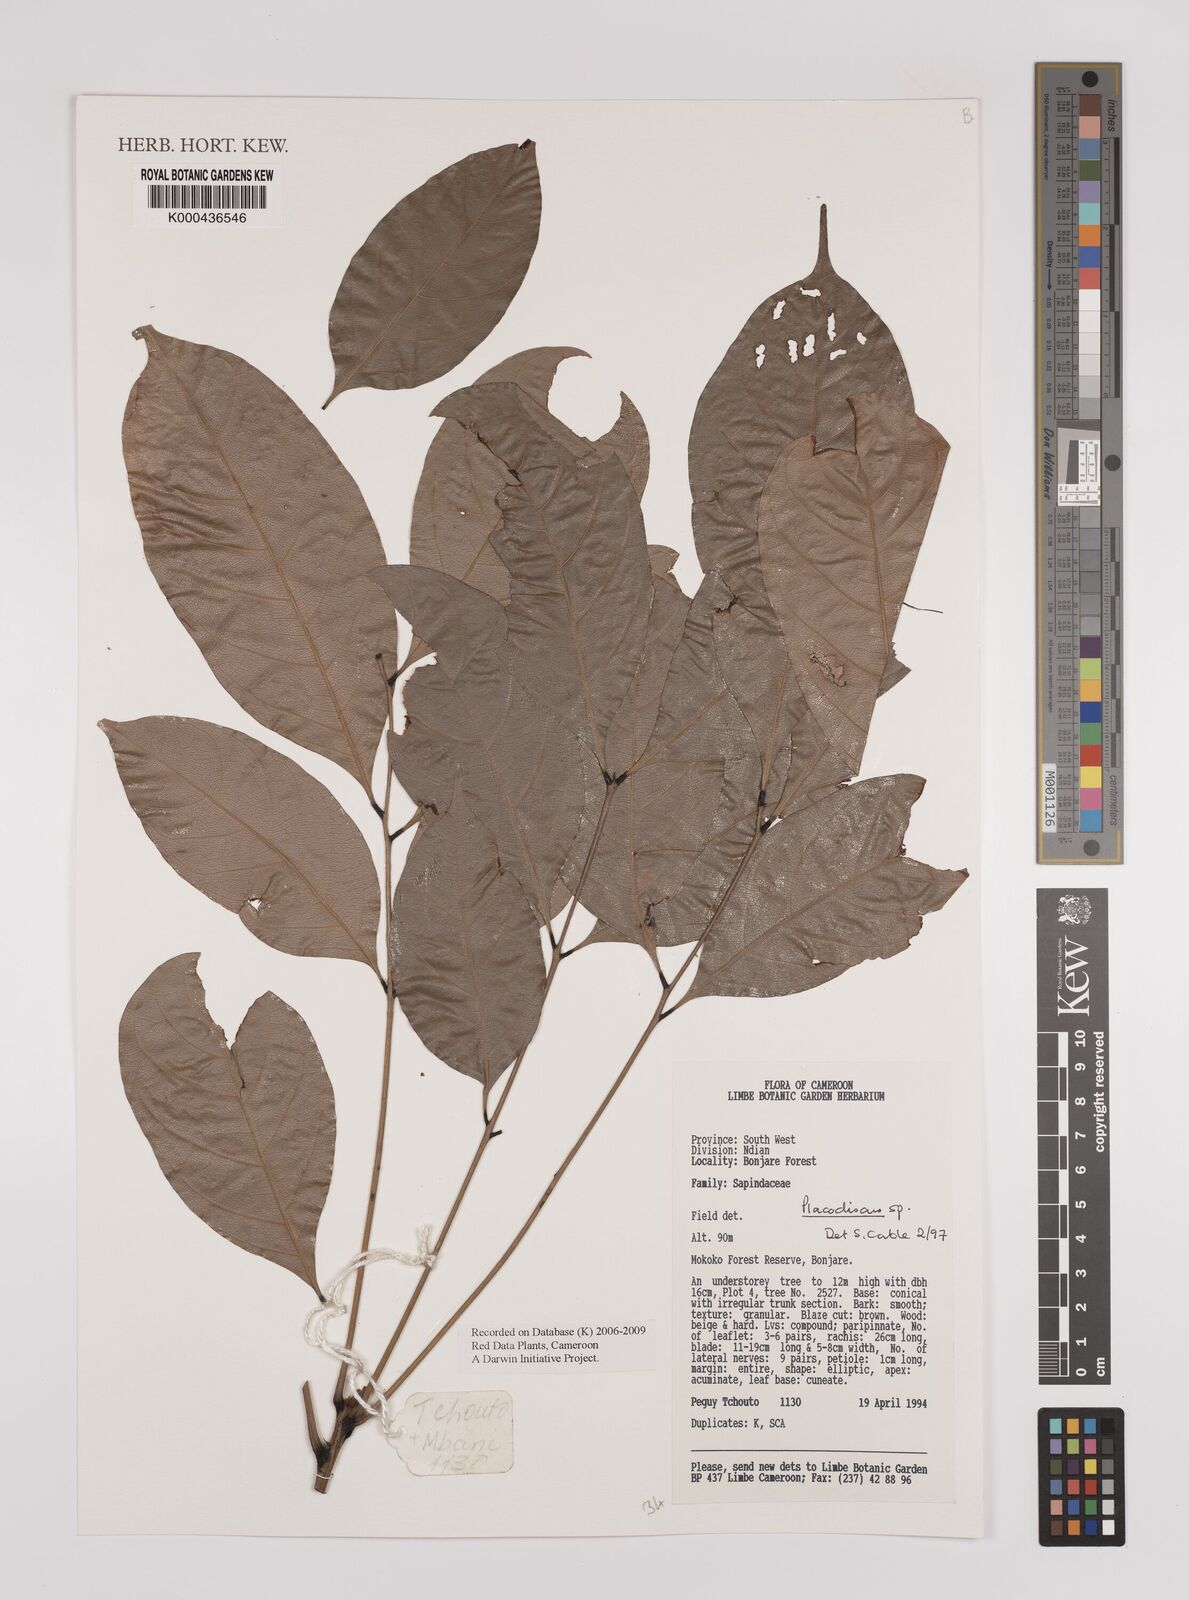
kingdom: Plantae
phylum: Tracheophyta
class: Magnoliopsida
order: Sapindales
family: Sapindaceae
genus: Placodiscus
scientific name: Placodiscus
